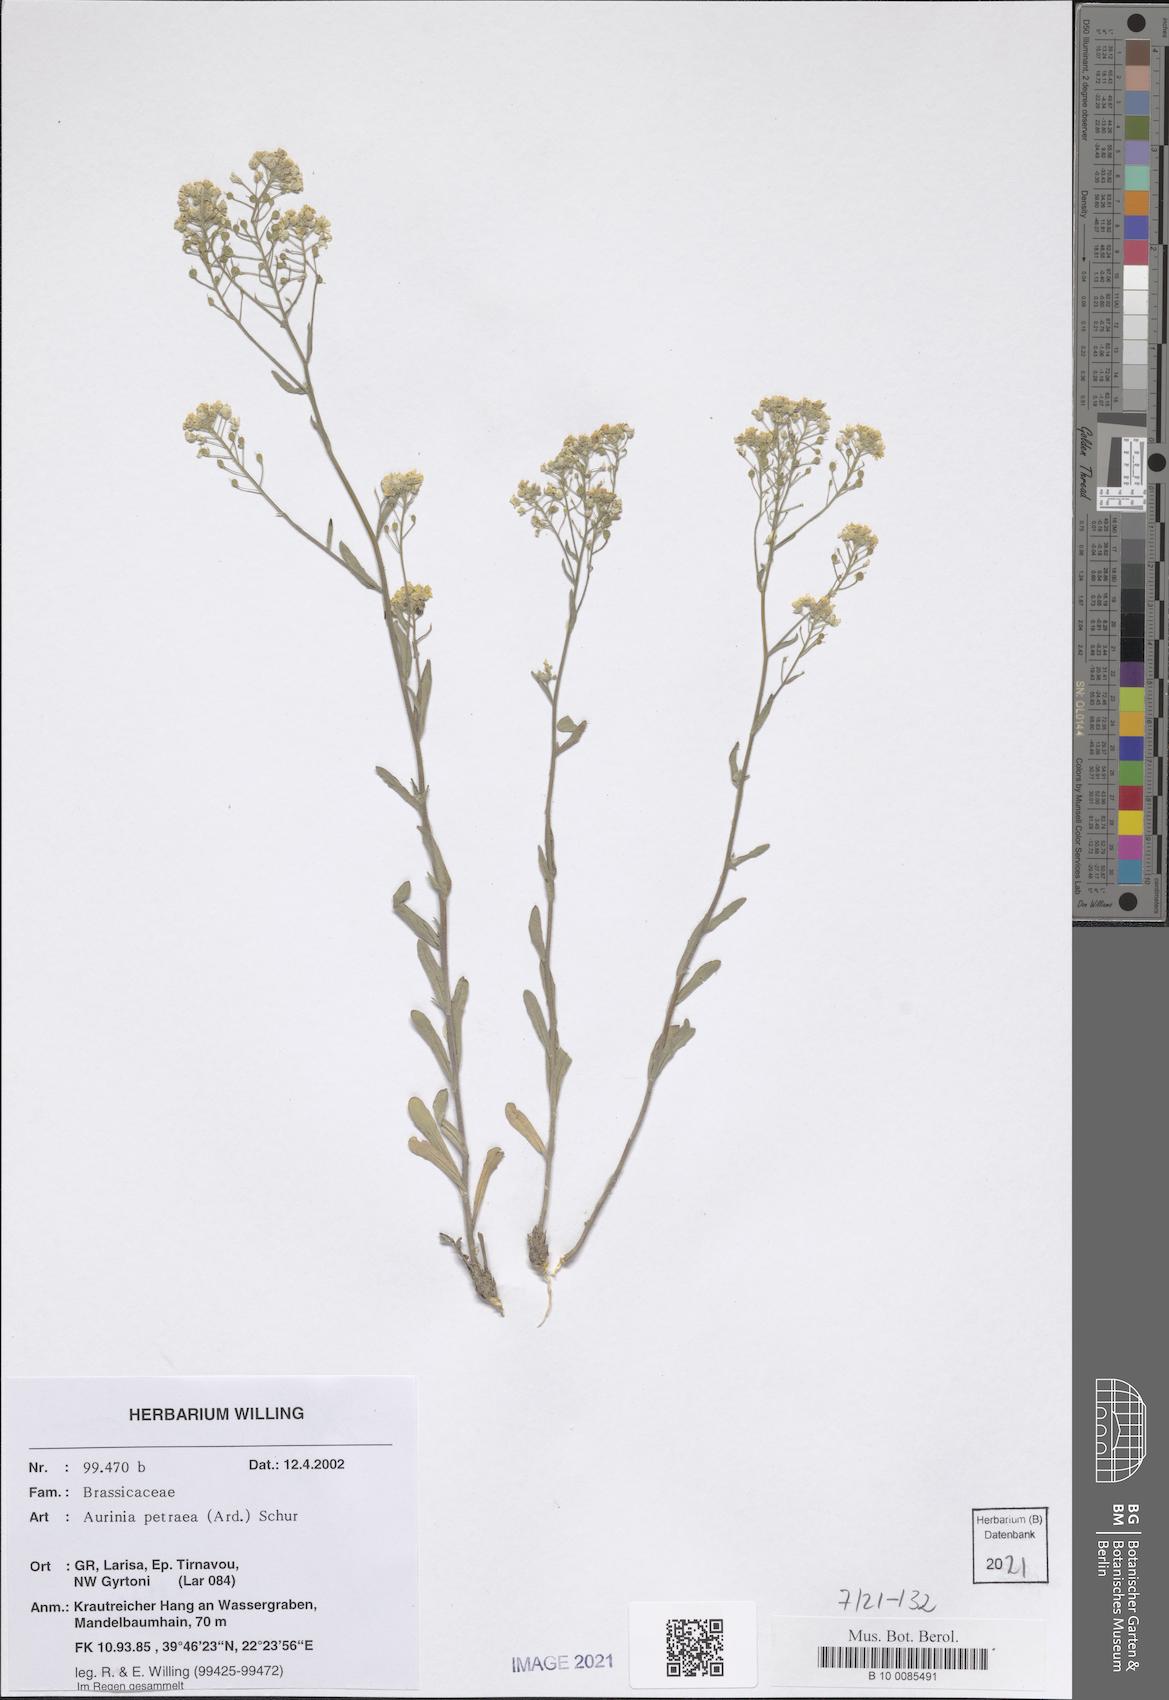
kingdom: Plantae
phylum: Tracheophyta
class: Magnoliopsida
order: Brassicales
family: Brassicaceae
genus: Aurinia
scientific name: Aurinia petraea
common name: Goldentuft
